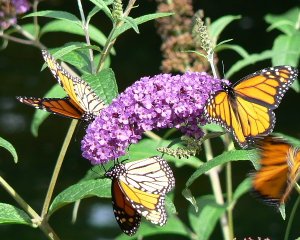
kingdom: Animalia
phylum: Arthropoda
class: Insecta
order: Lepidoptera
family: Nymphalidae
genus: Danaus
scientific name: Danaus plexippus
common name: Monarch
